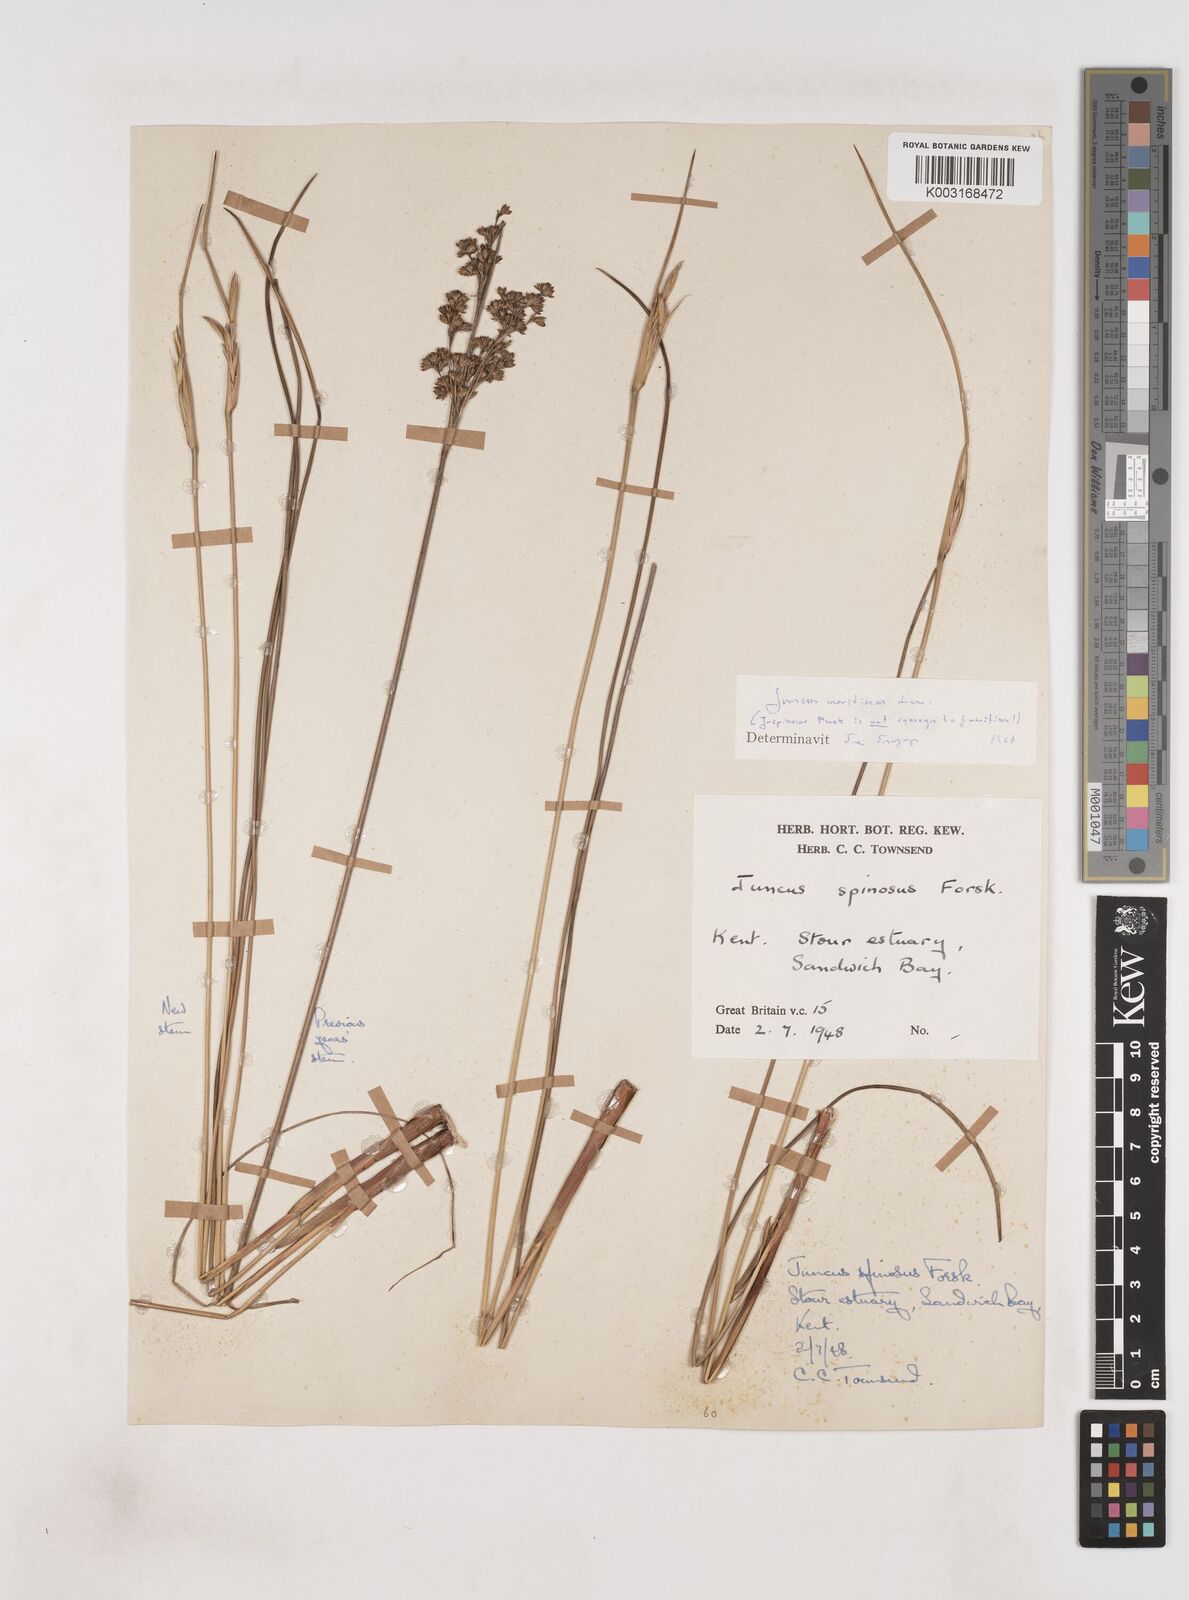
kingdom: Plantae
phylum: Tracheophyta
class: Liliopsida
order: Poales
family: Juncaceae
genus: Juncus
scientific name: Juncus maritimus
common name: Sea rush
